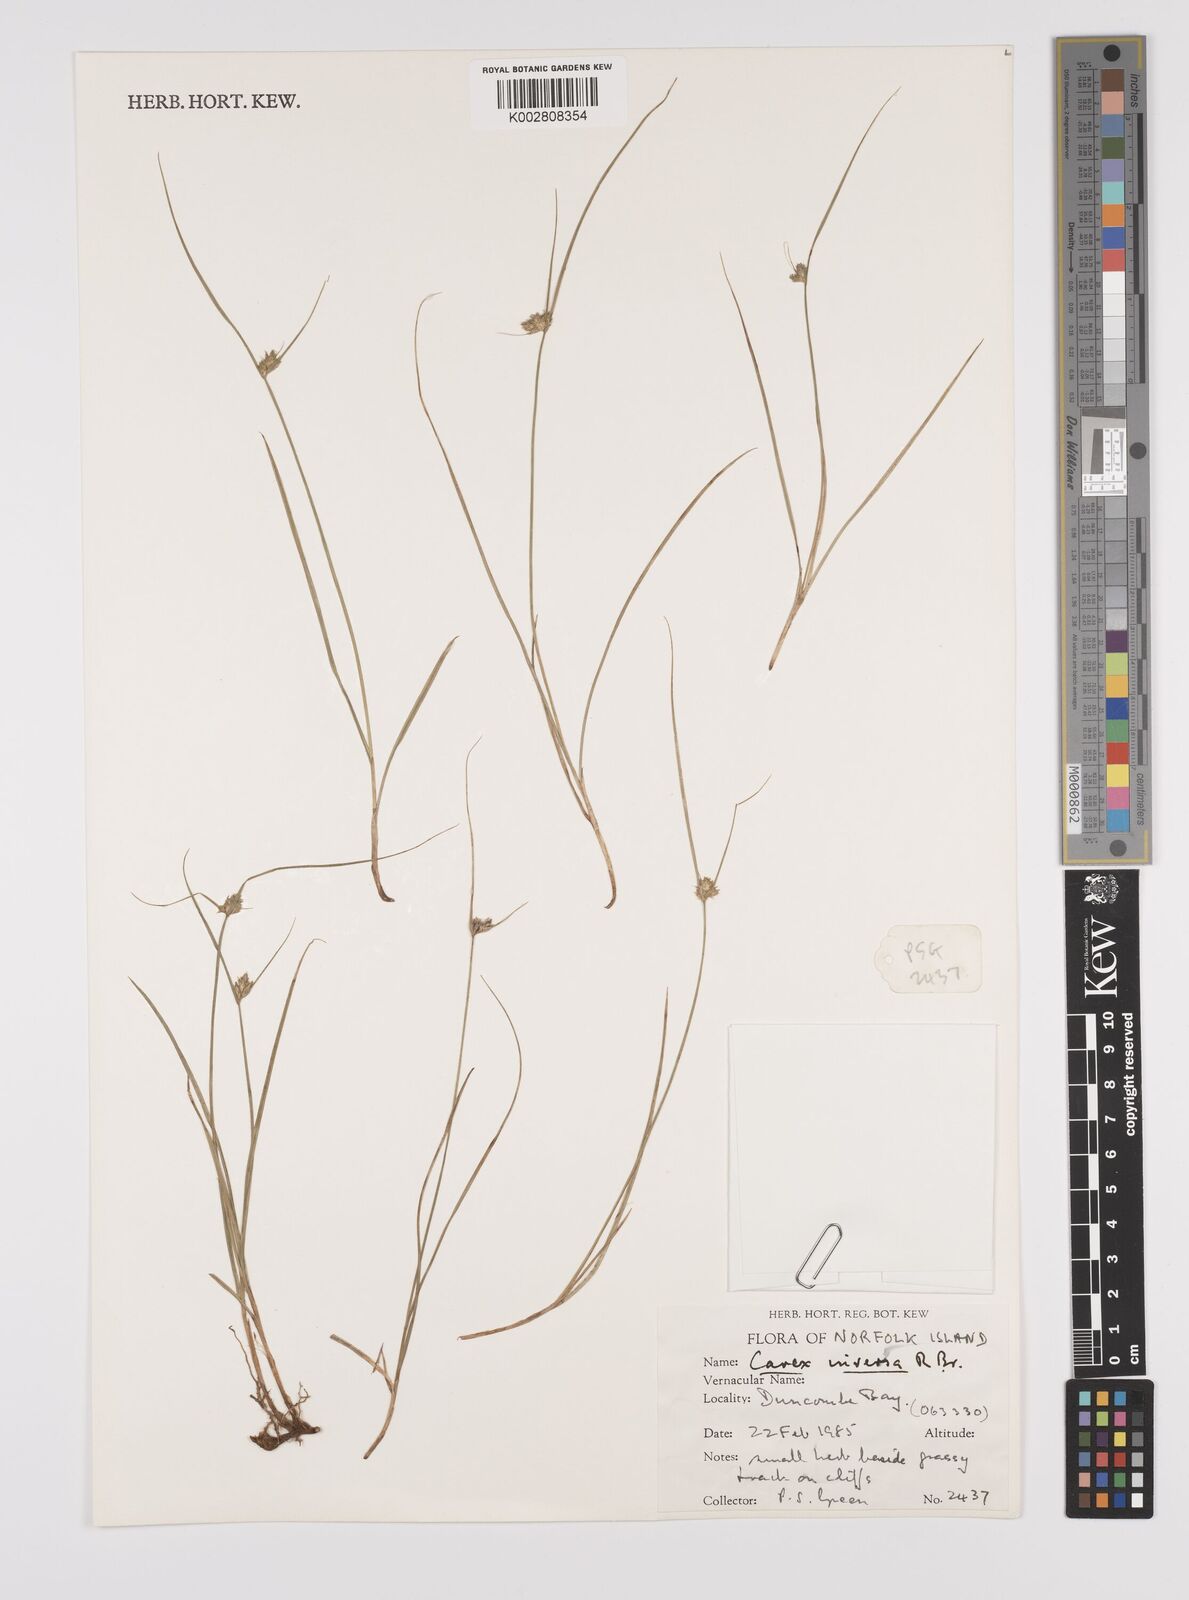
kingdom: Plantae
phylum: Tracheophyta
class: Liliopsida
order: Poales
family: Cyperaceae
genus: Carex
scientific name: Carex inversa
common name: Knob sedge
